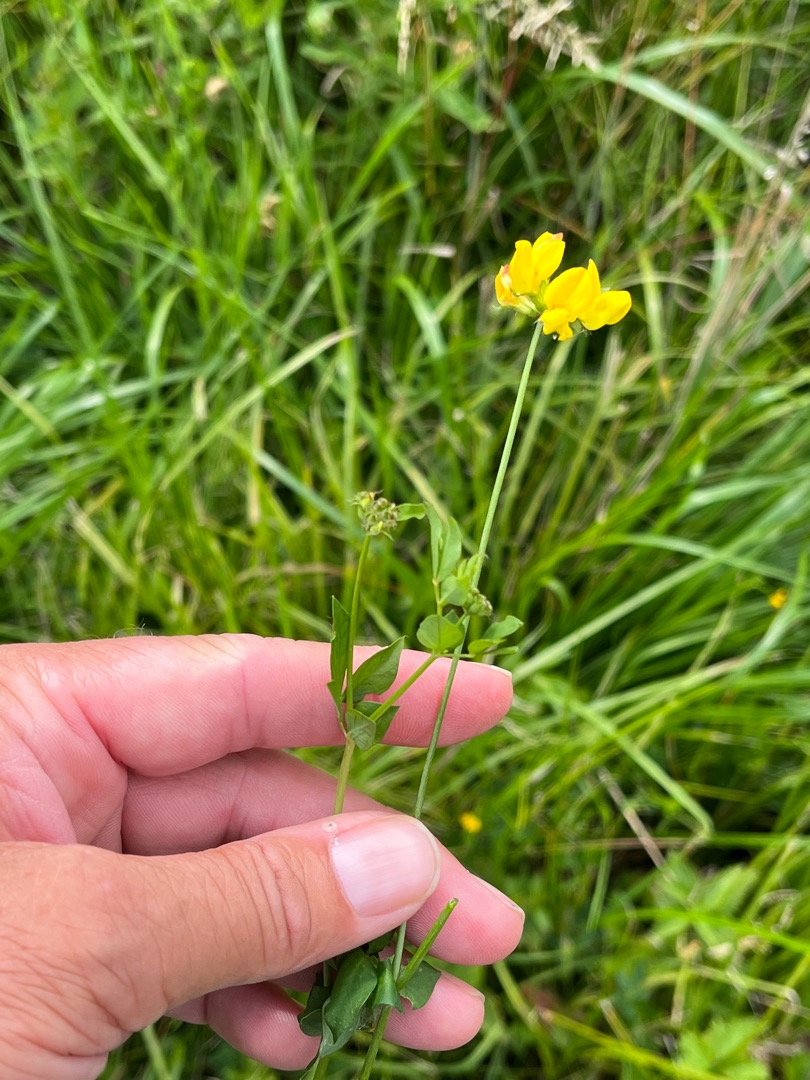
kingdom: Plantae
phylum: Tracheophyta
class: Magnoliopsida
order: Fabales
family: Fabaceae
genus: Lotus
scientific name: Lotus pedunculatus
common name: Sump-kællingetand
